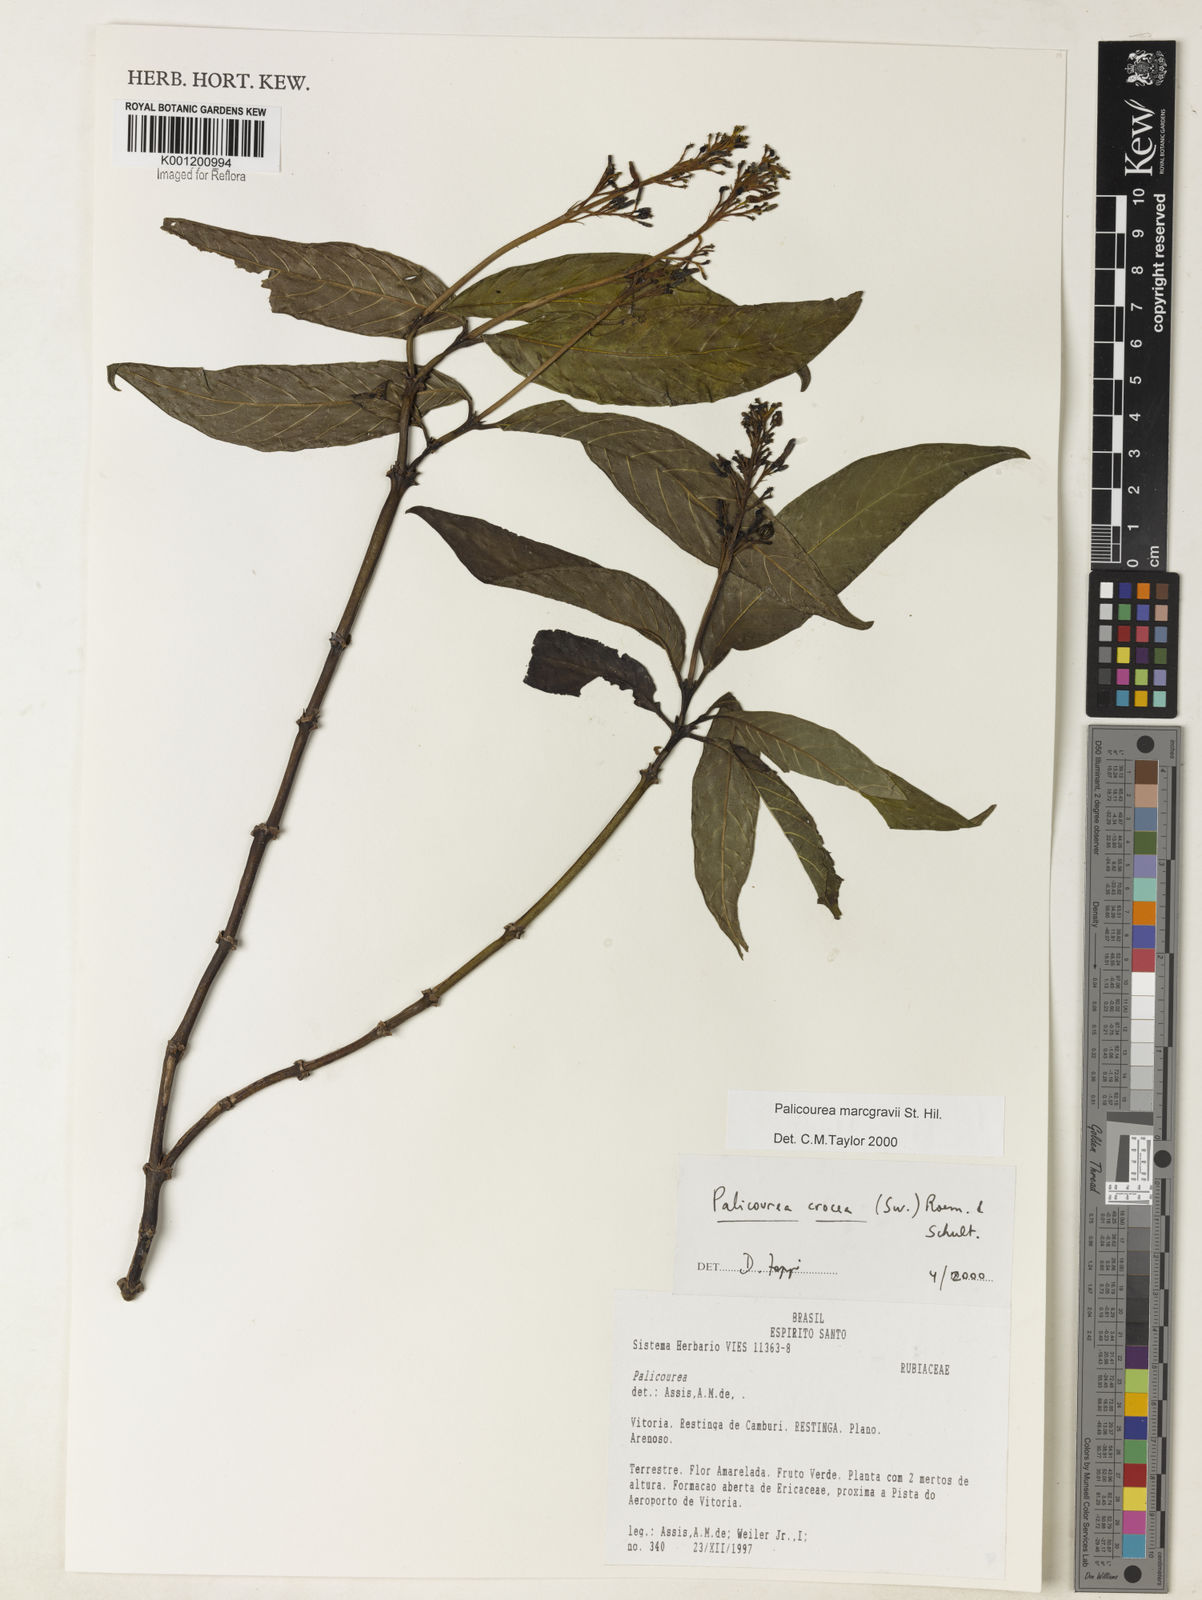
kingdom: Plantae
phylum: Tracheophyta
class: Magnoliopsida
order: Gentianales
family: Rubiaceae
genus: Palicourea
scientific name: Palicourea marcgravii
